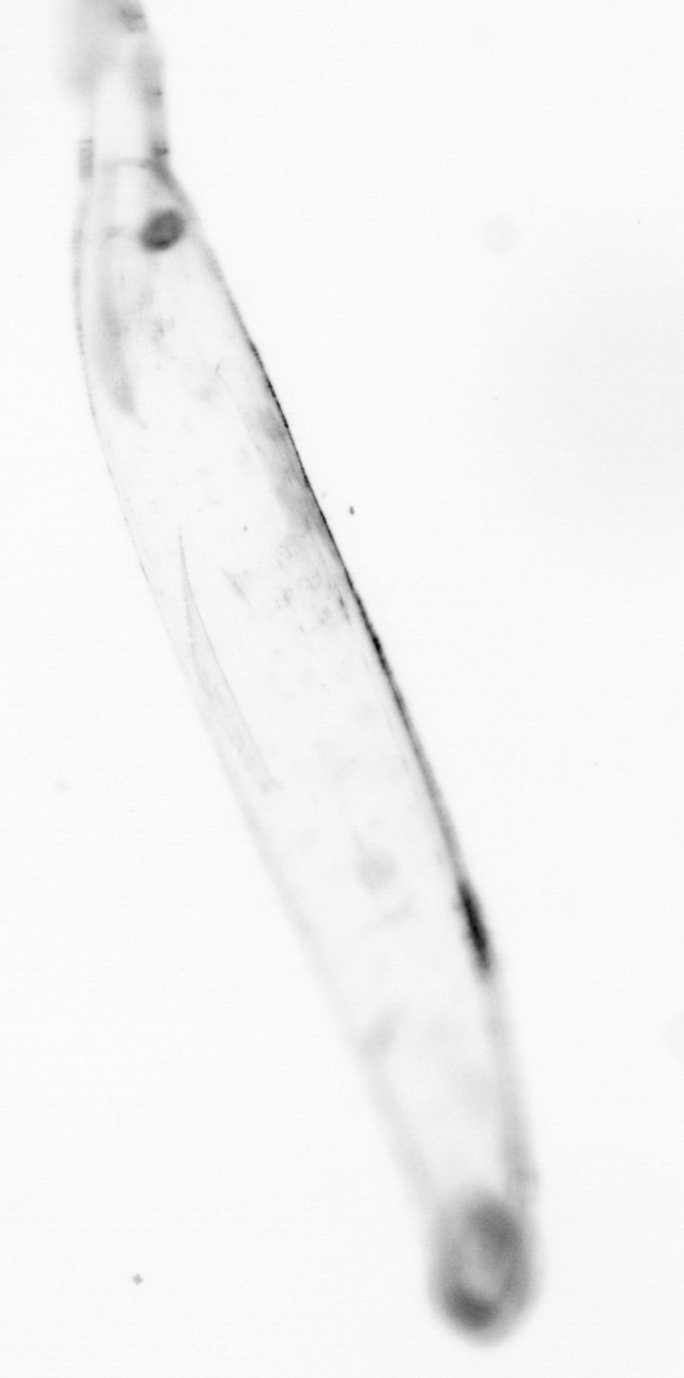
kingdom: Animalia
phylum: Chaetognatha
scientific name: Chaetognatha
